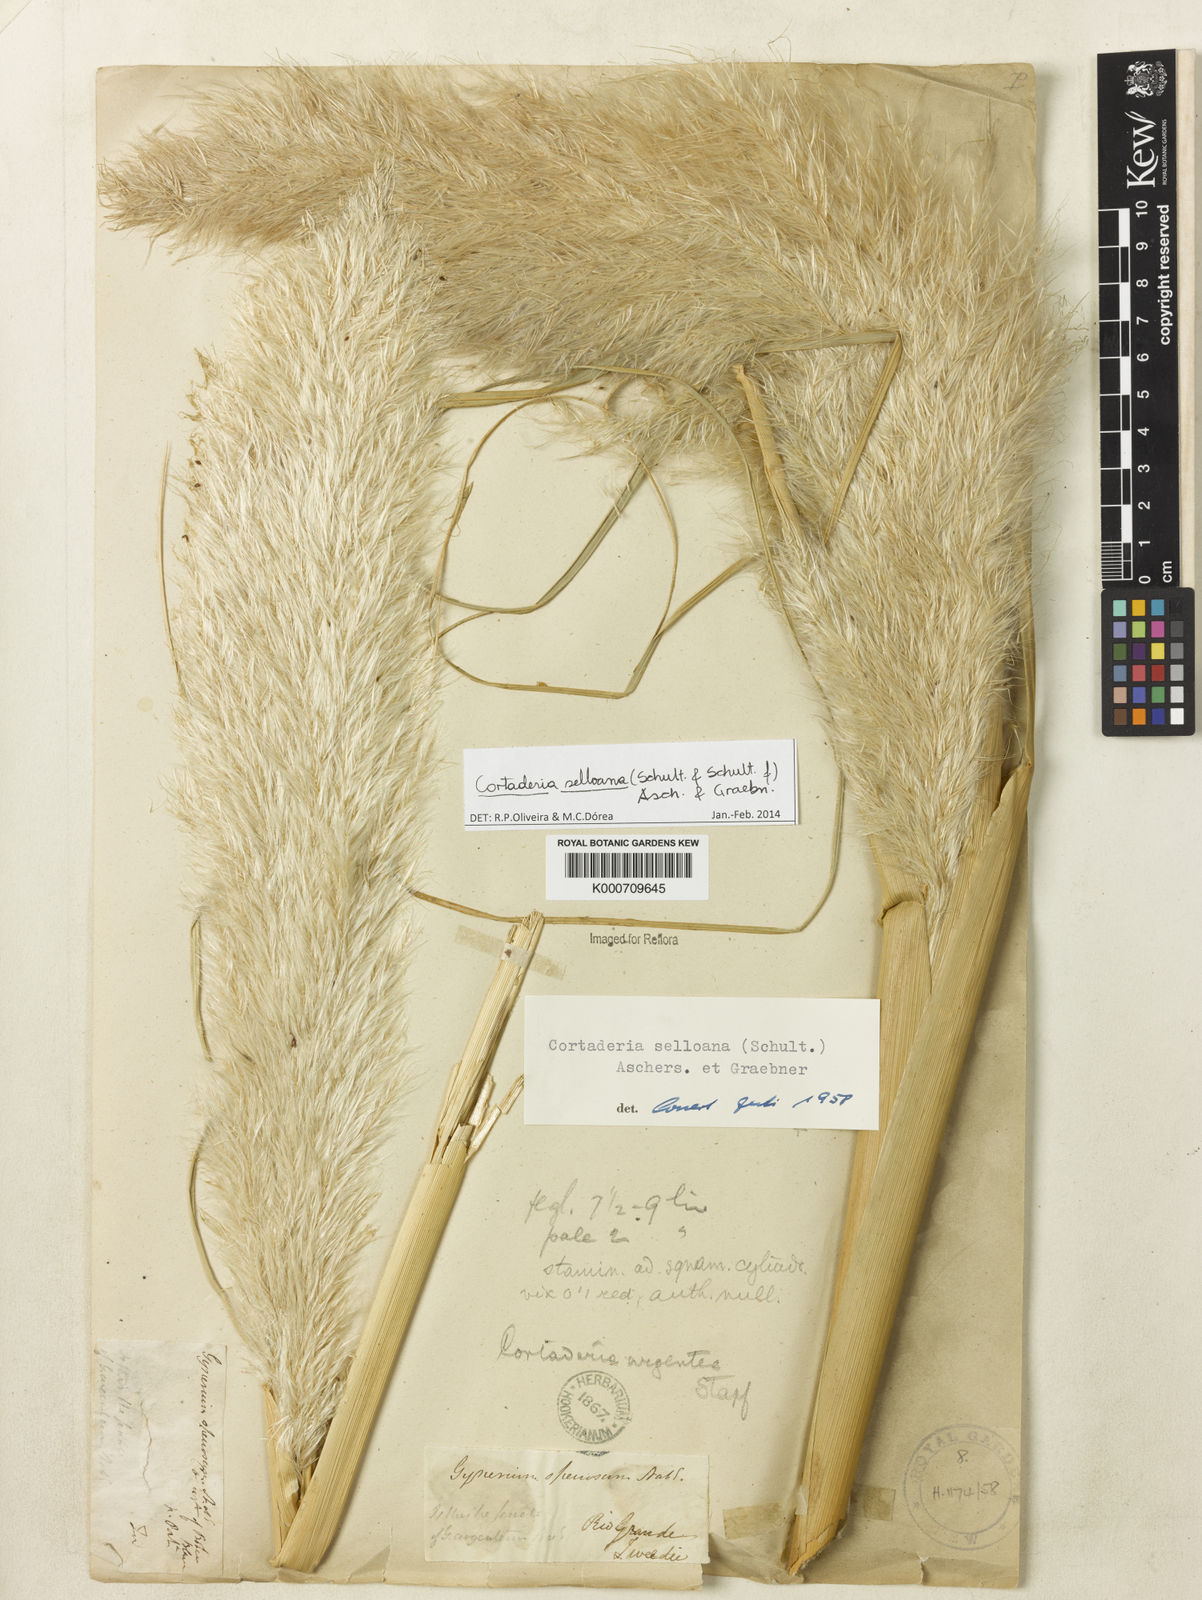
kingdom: Plantae
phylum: Tracheophyta
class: Liliopsida
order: Poales
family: Poaceae
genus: Cortaderia
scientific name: Cortaderia selloana
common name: Uruguayan pampas grass
